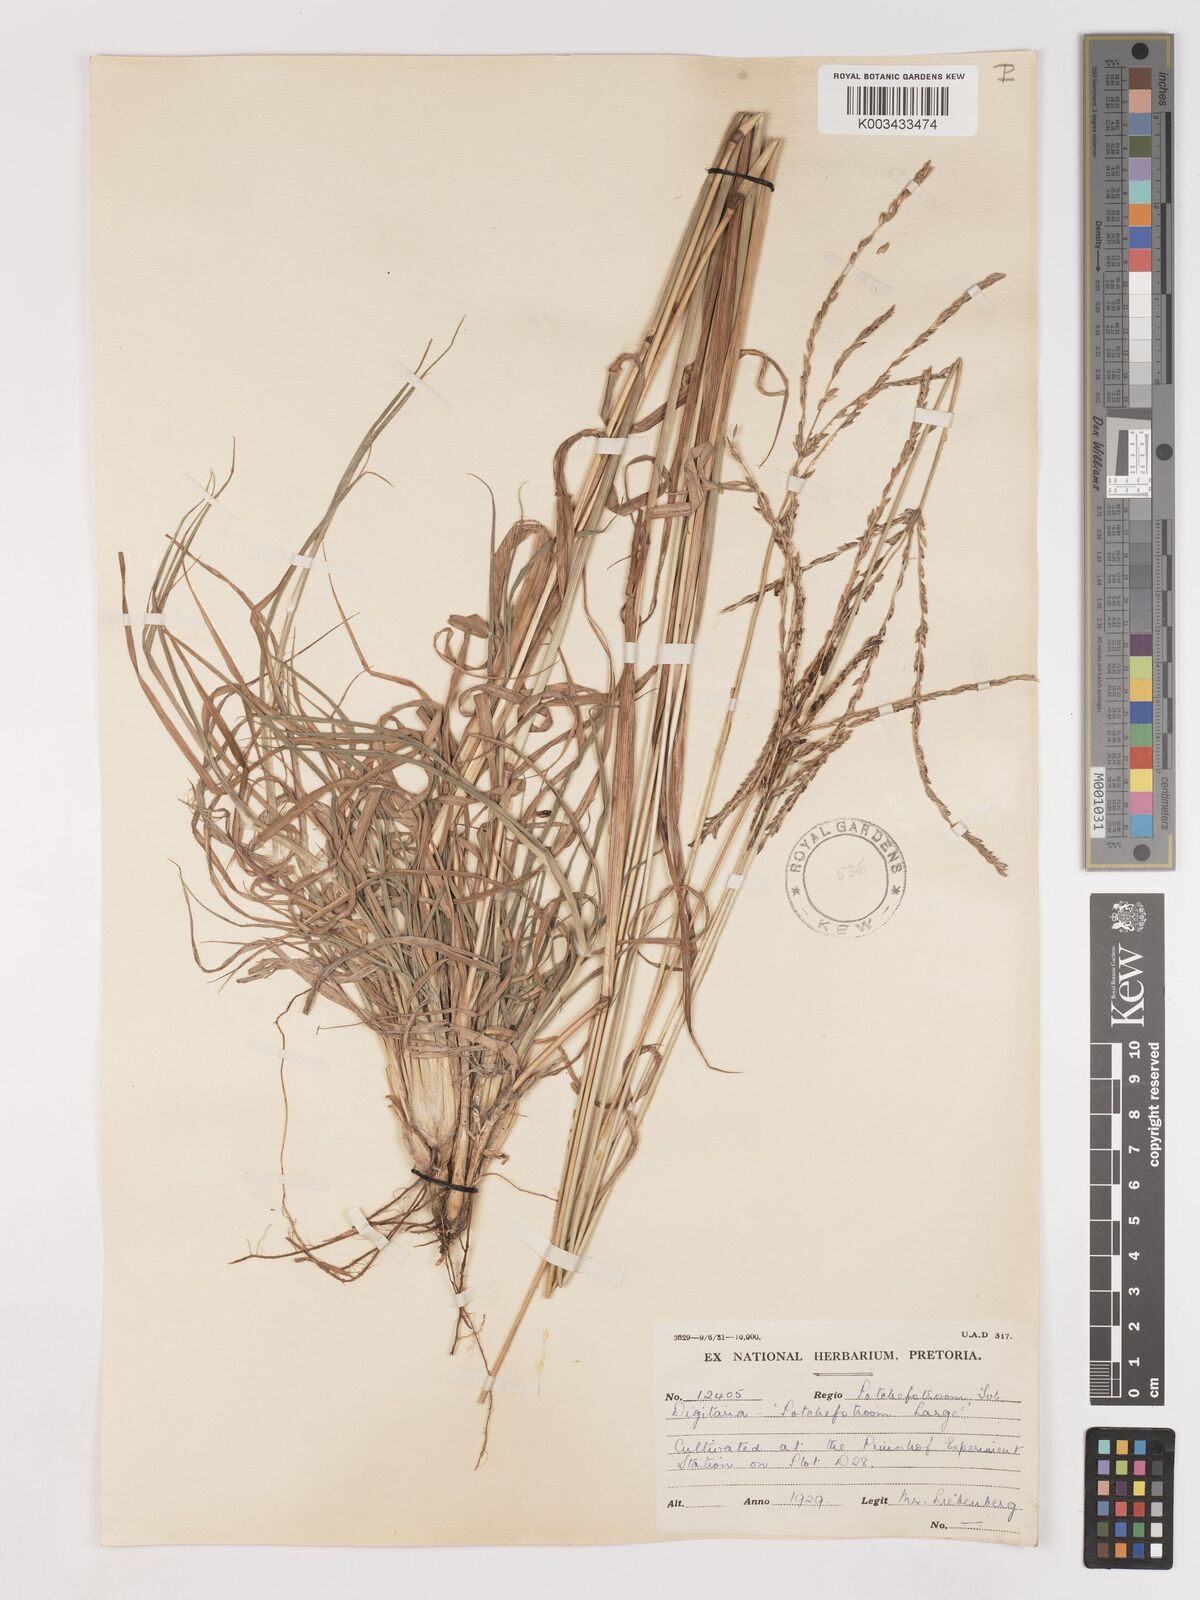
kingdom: Plantae
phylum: Tracheophyta
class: Liliopsida
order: Poales
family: Poaceae
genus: Digitaria
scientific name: Digitaria eriantha
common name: Digitgrass
